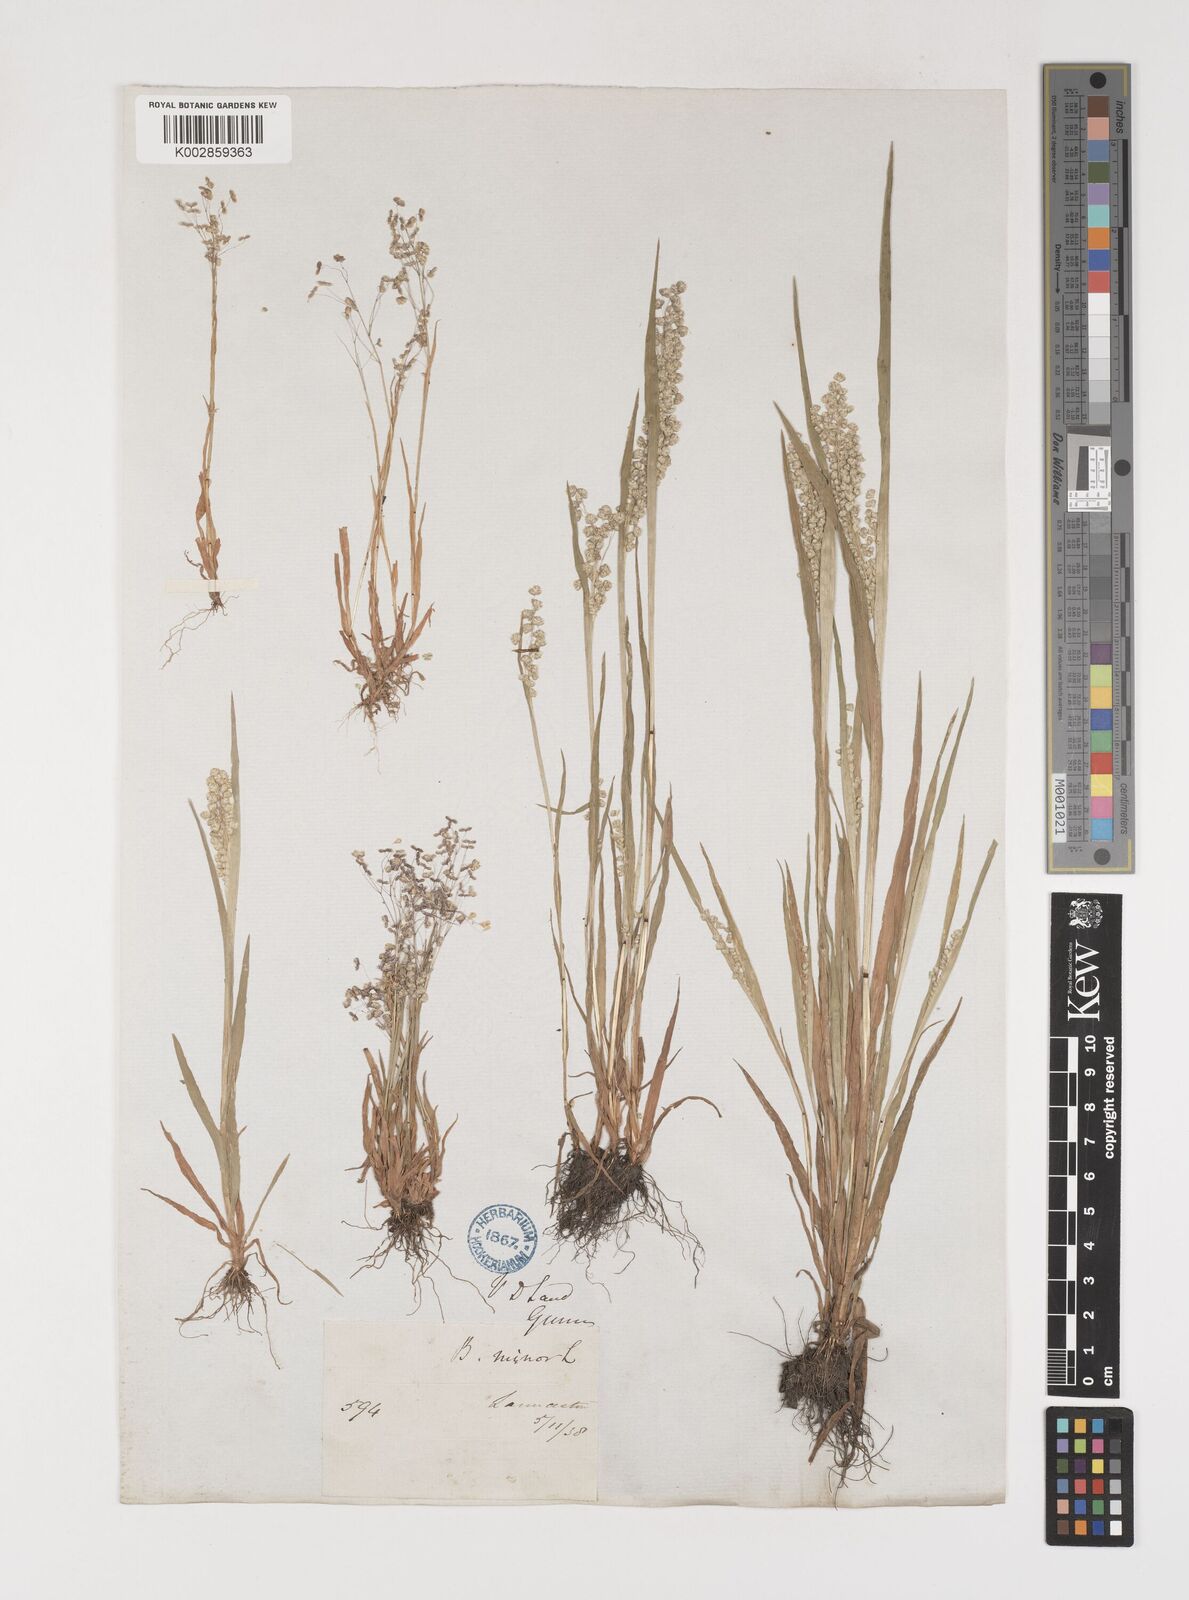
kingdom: Plantae
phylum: Tracheophyta
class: Liliopsida
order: Poales
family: Poaceae
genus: Briza
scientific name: Briza minor
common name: Lesser quaking-grass
